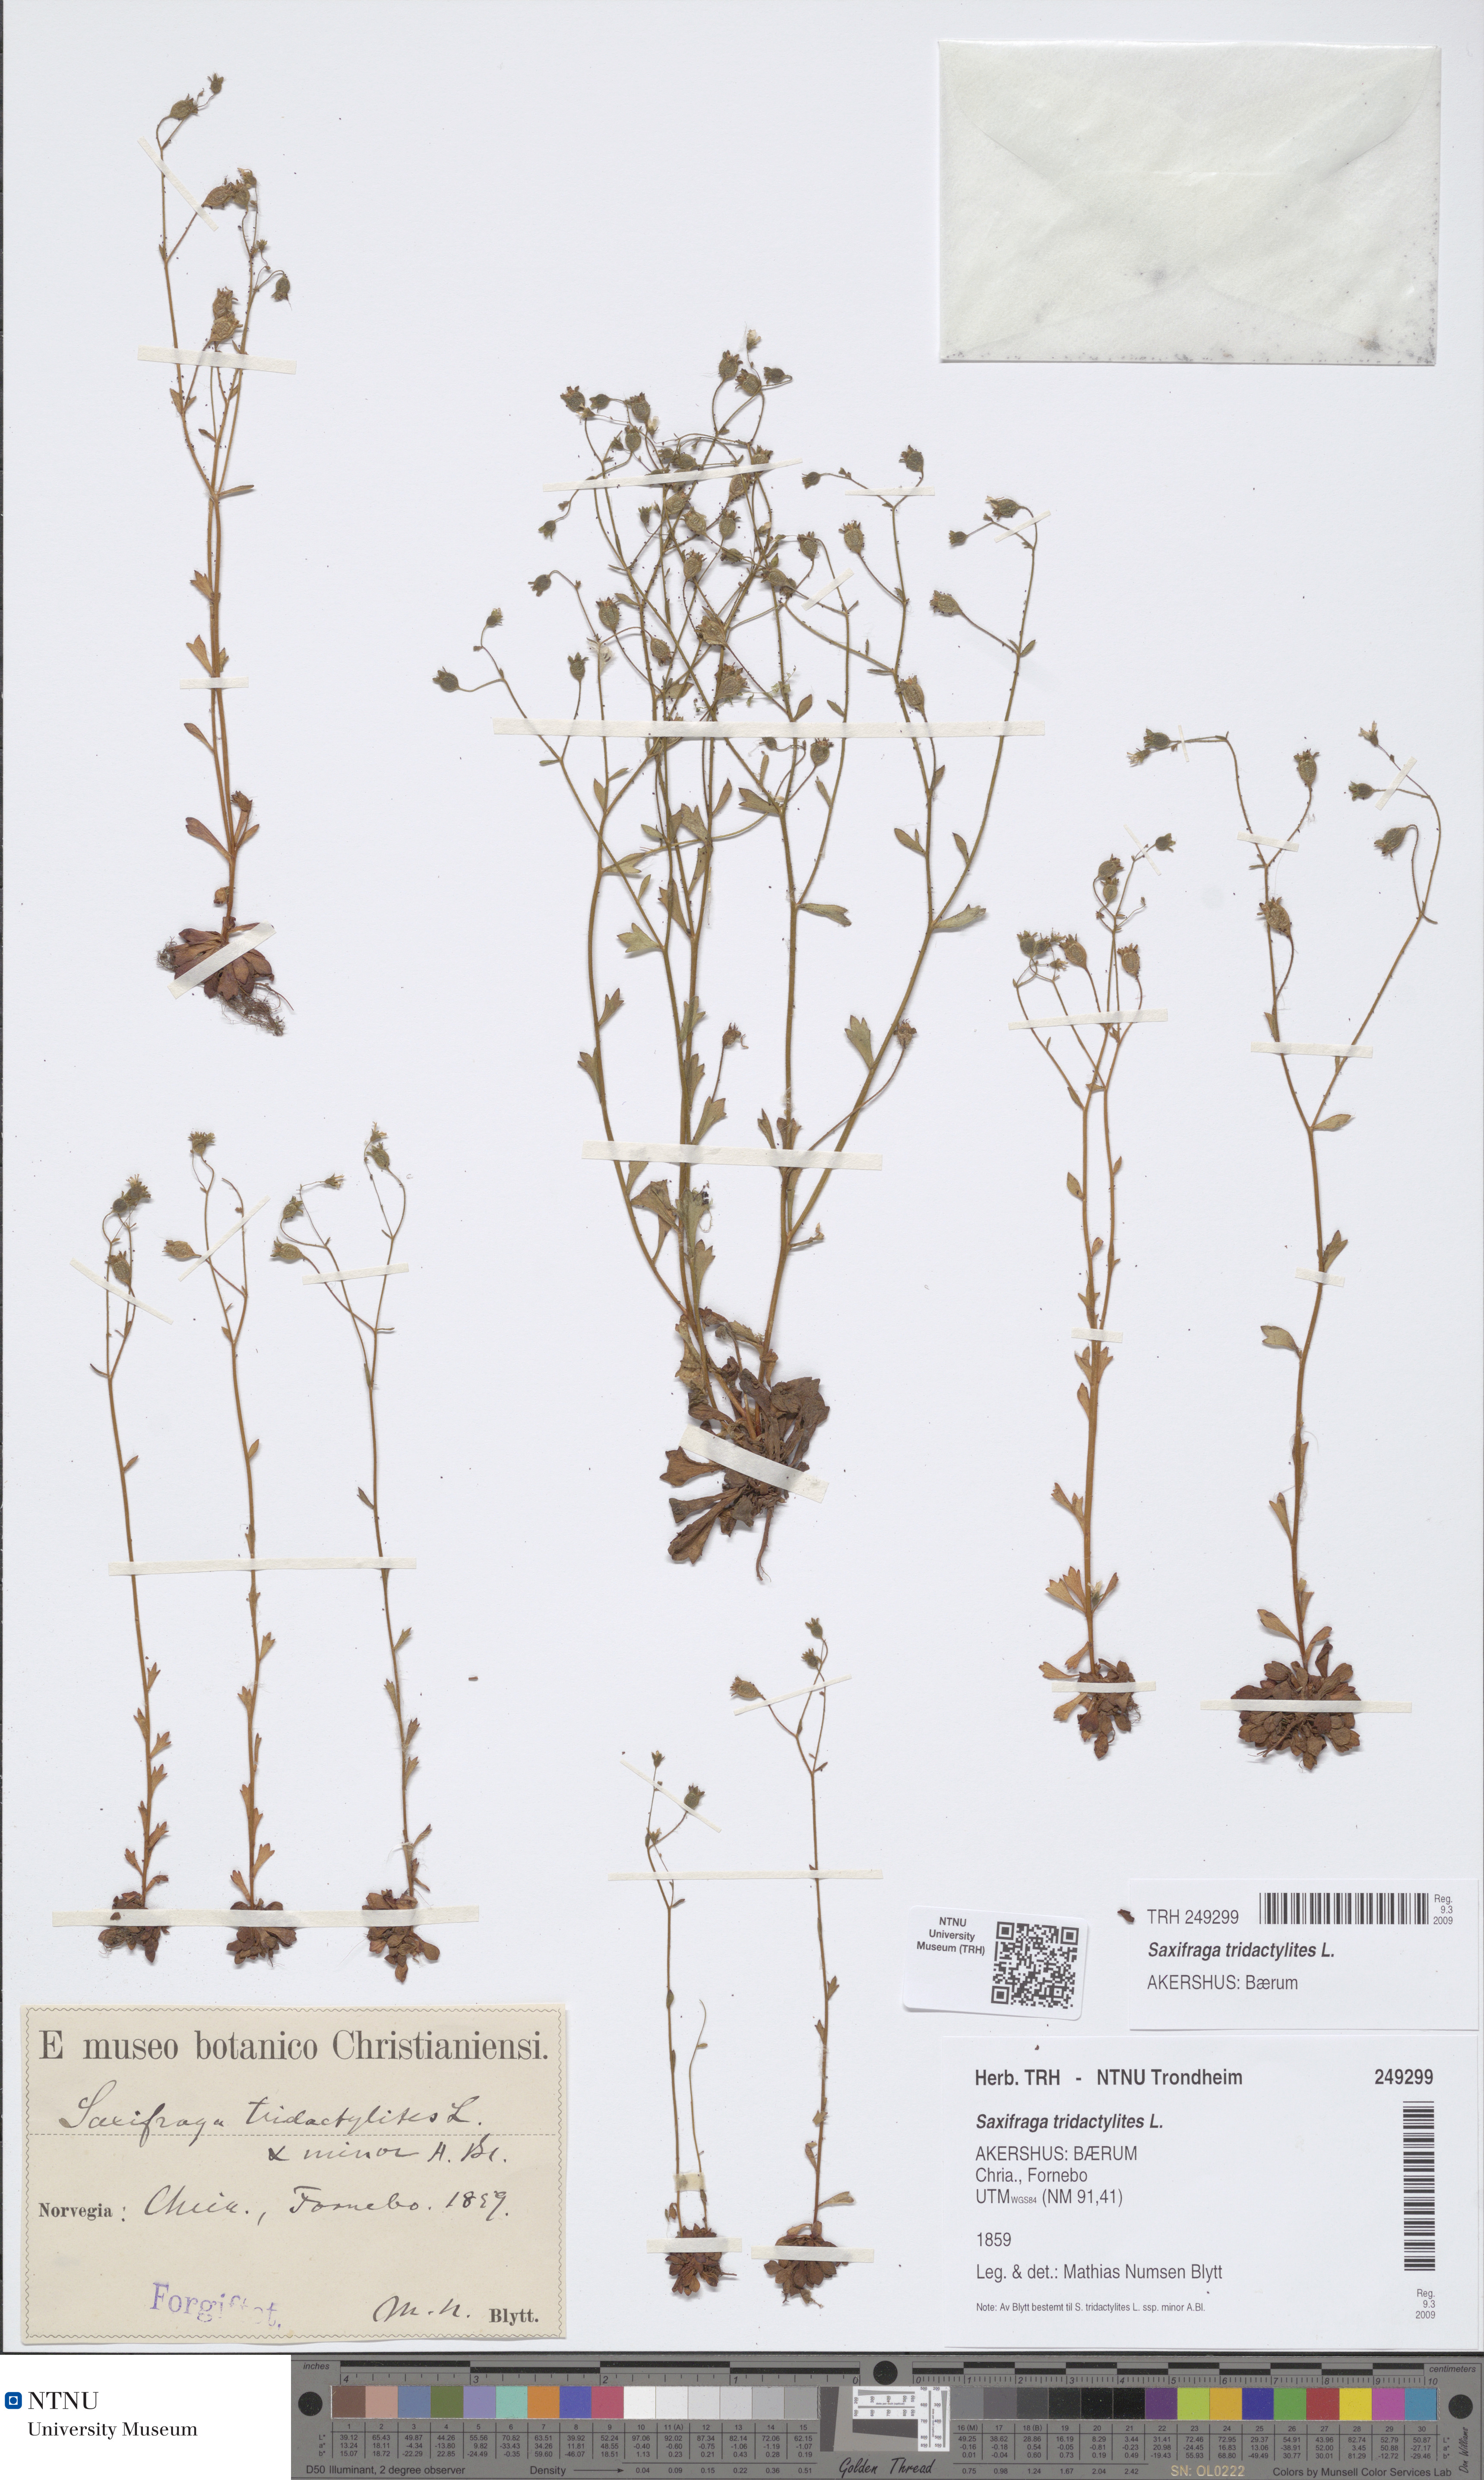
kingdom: Plantae
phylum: Tracheophyta
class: Magnoliopsida
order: Saxifragales
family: Saxifragaceae
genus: Saxifraga
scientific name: Saxifraga tridactylites
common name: Rue-leaved saxifrage
